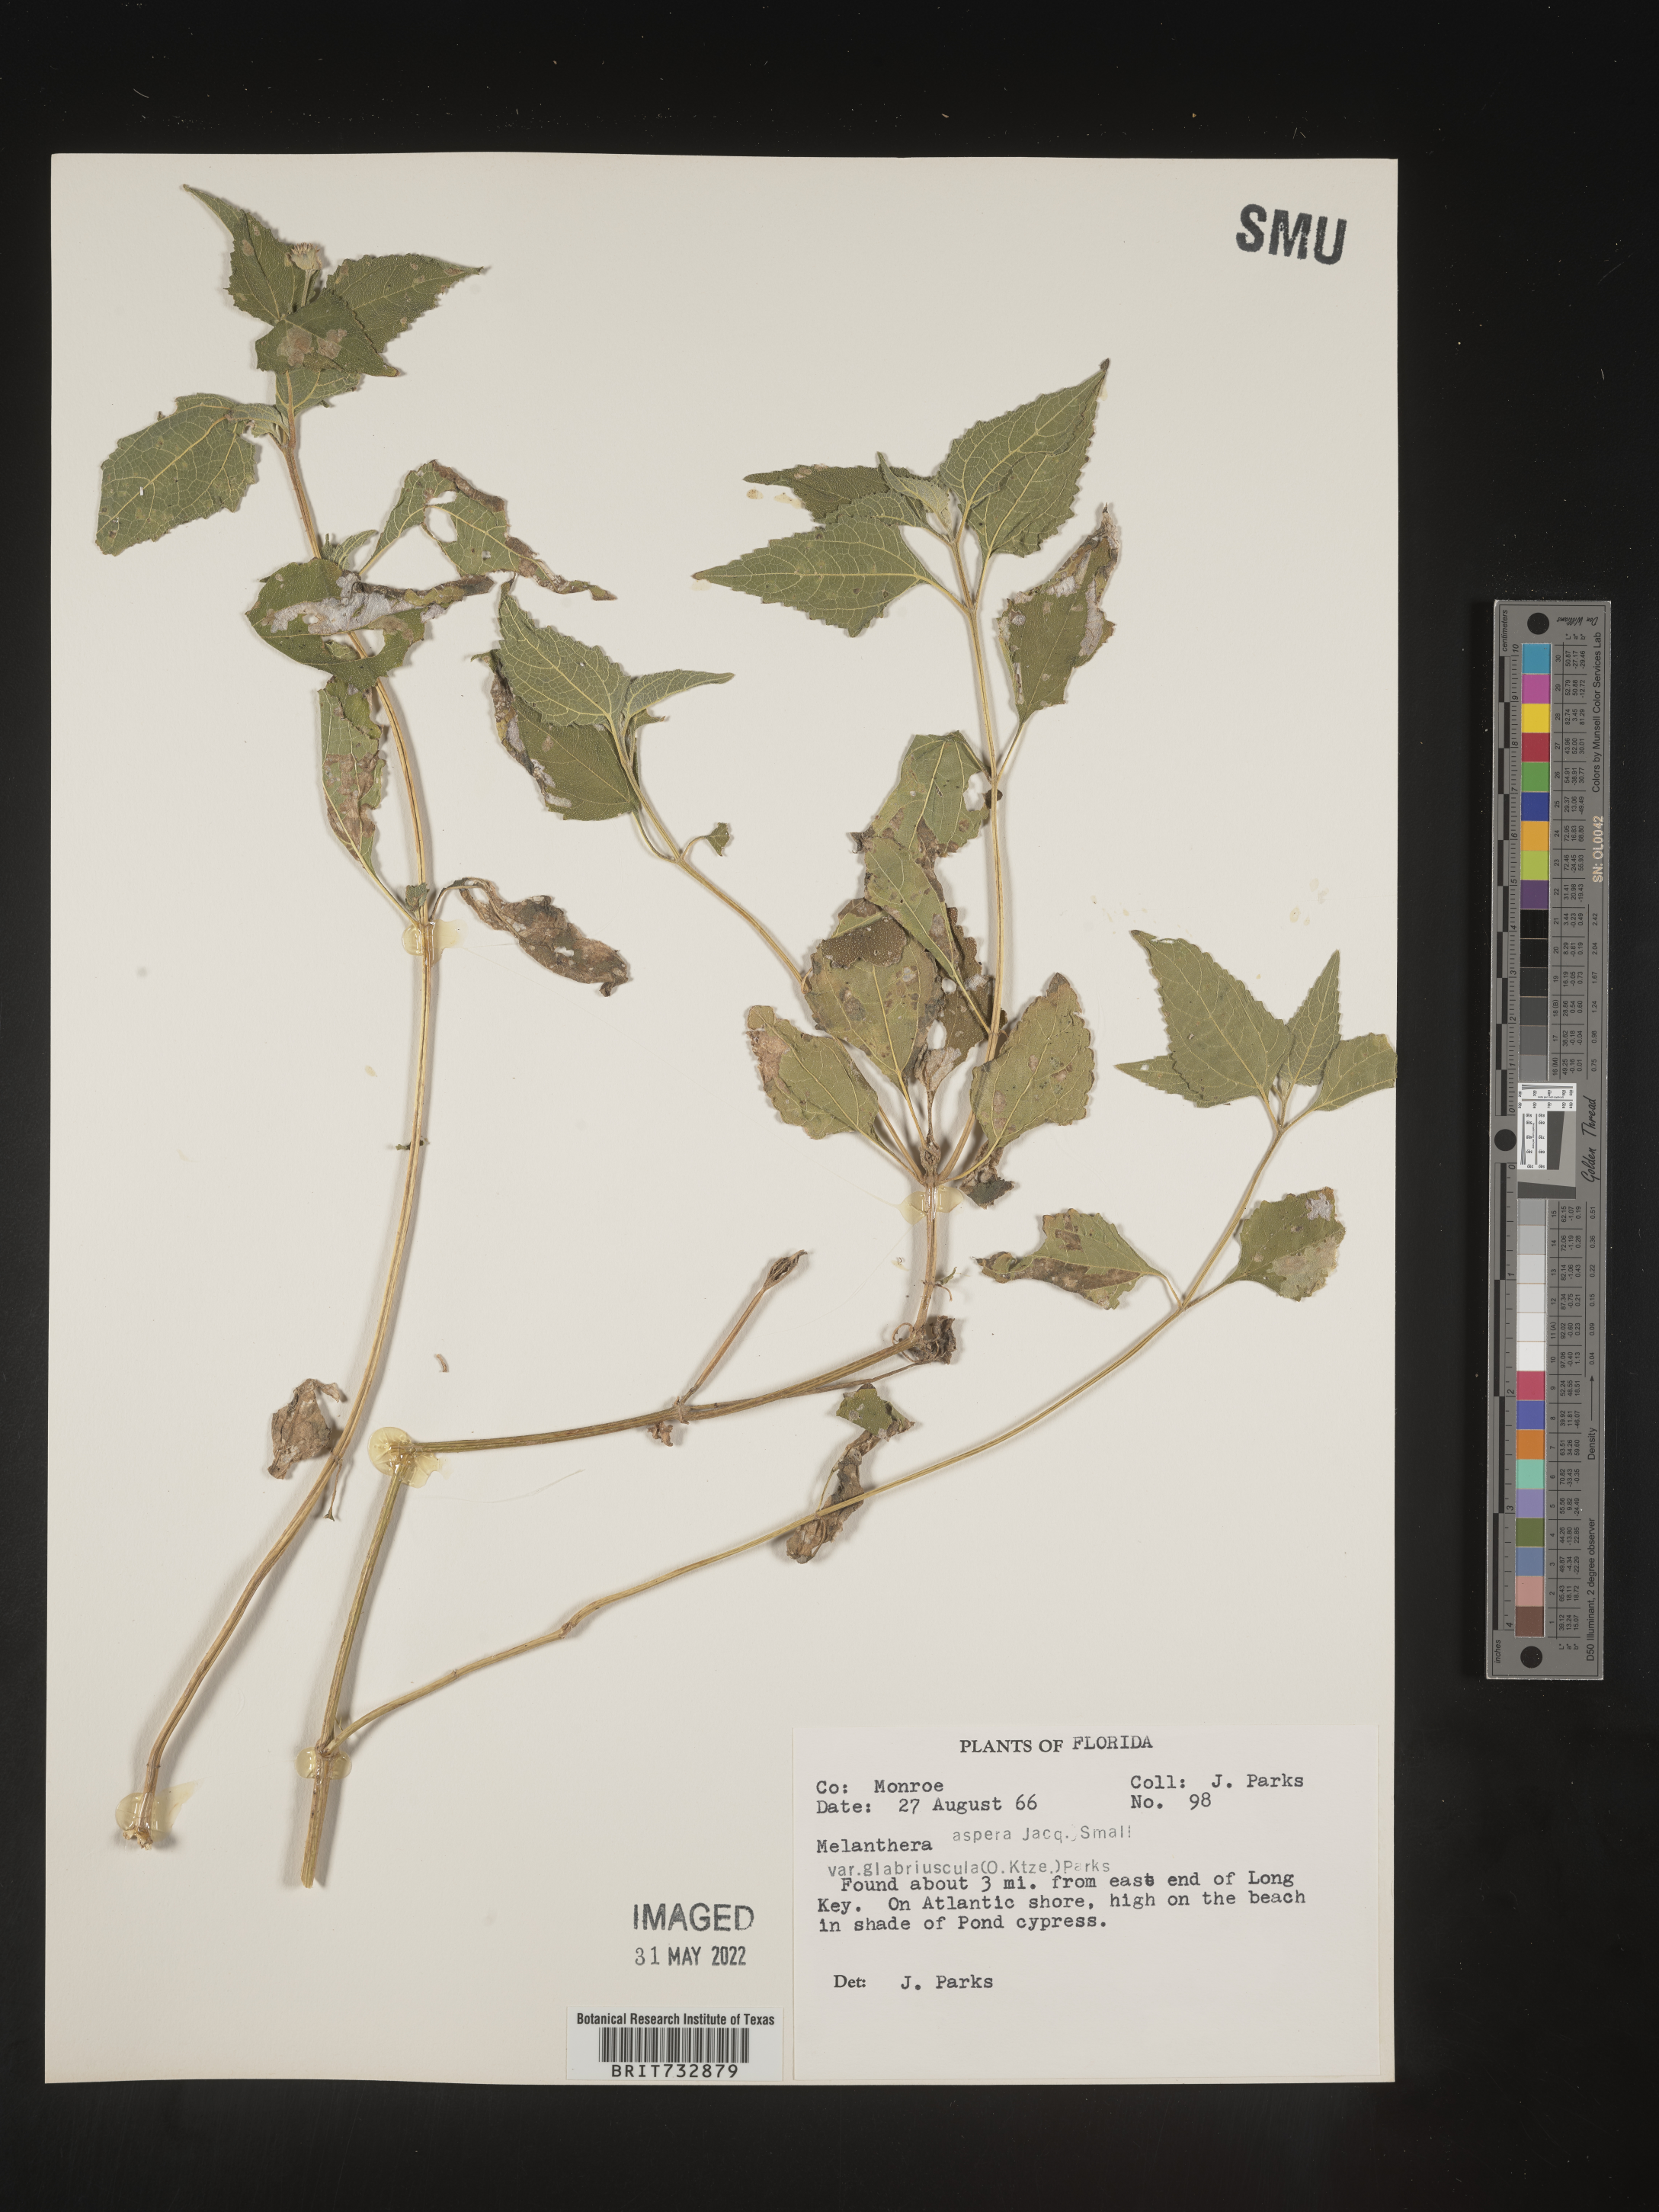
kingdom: Plantae
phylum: Tracheophyta
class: Magnoliopsida
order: Asterales
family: Asteraceae
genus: Melanthera
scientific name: Melanthera nivea
